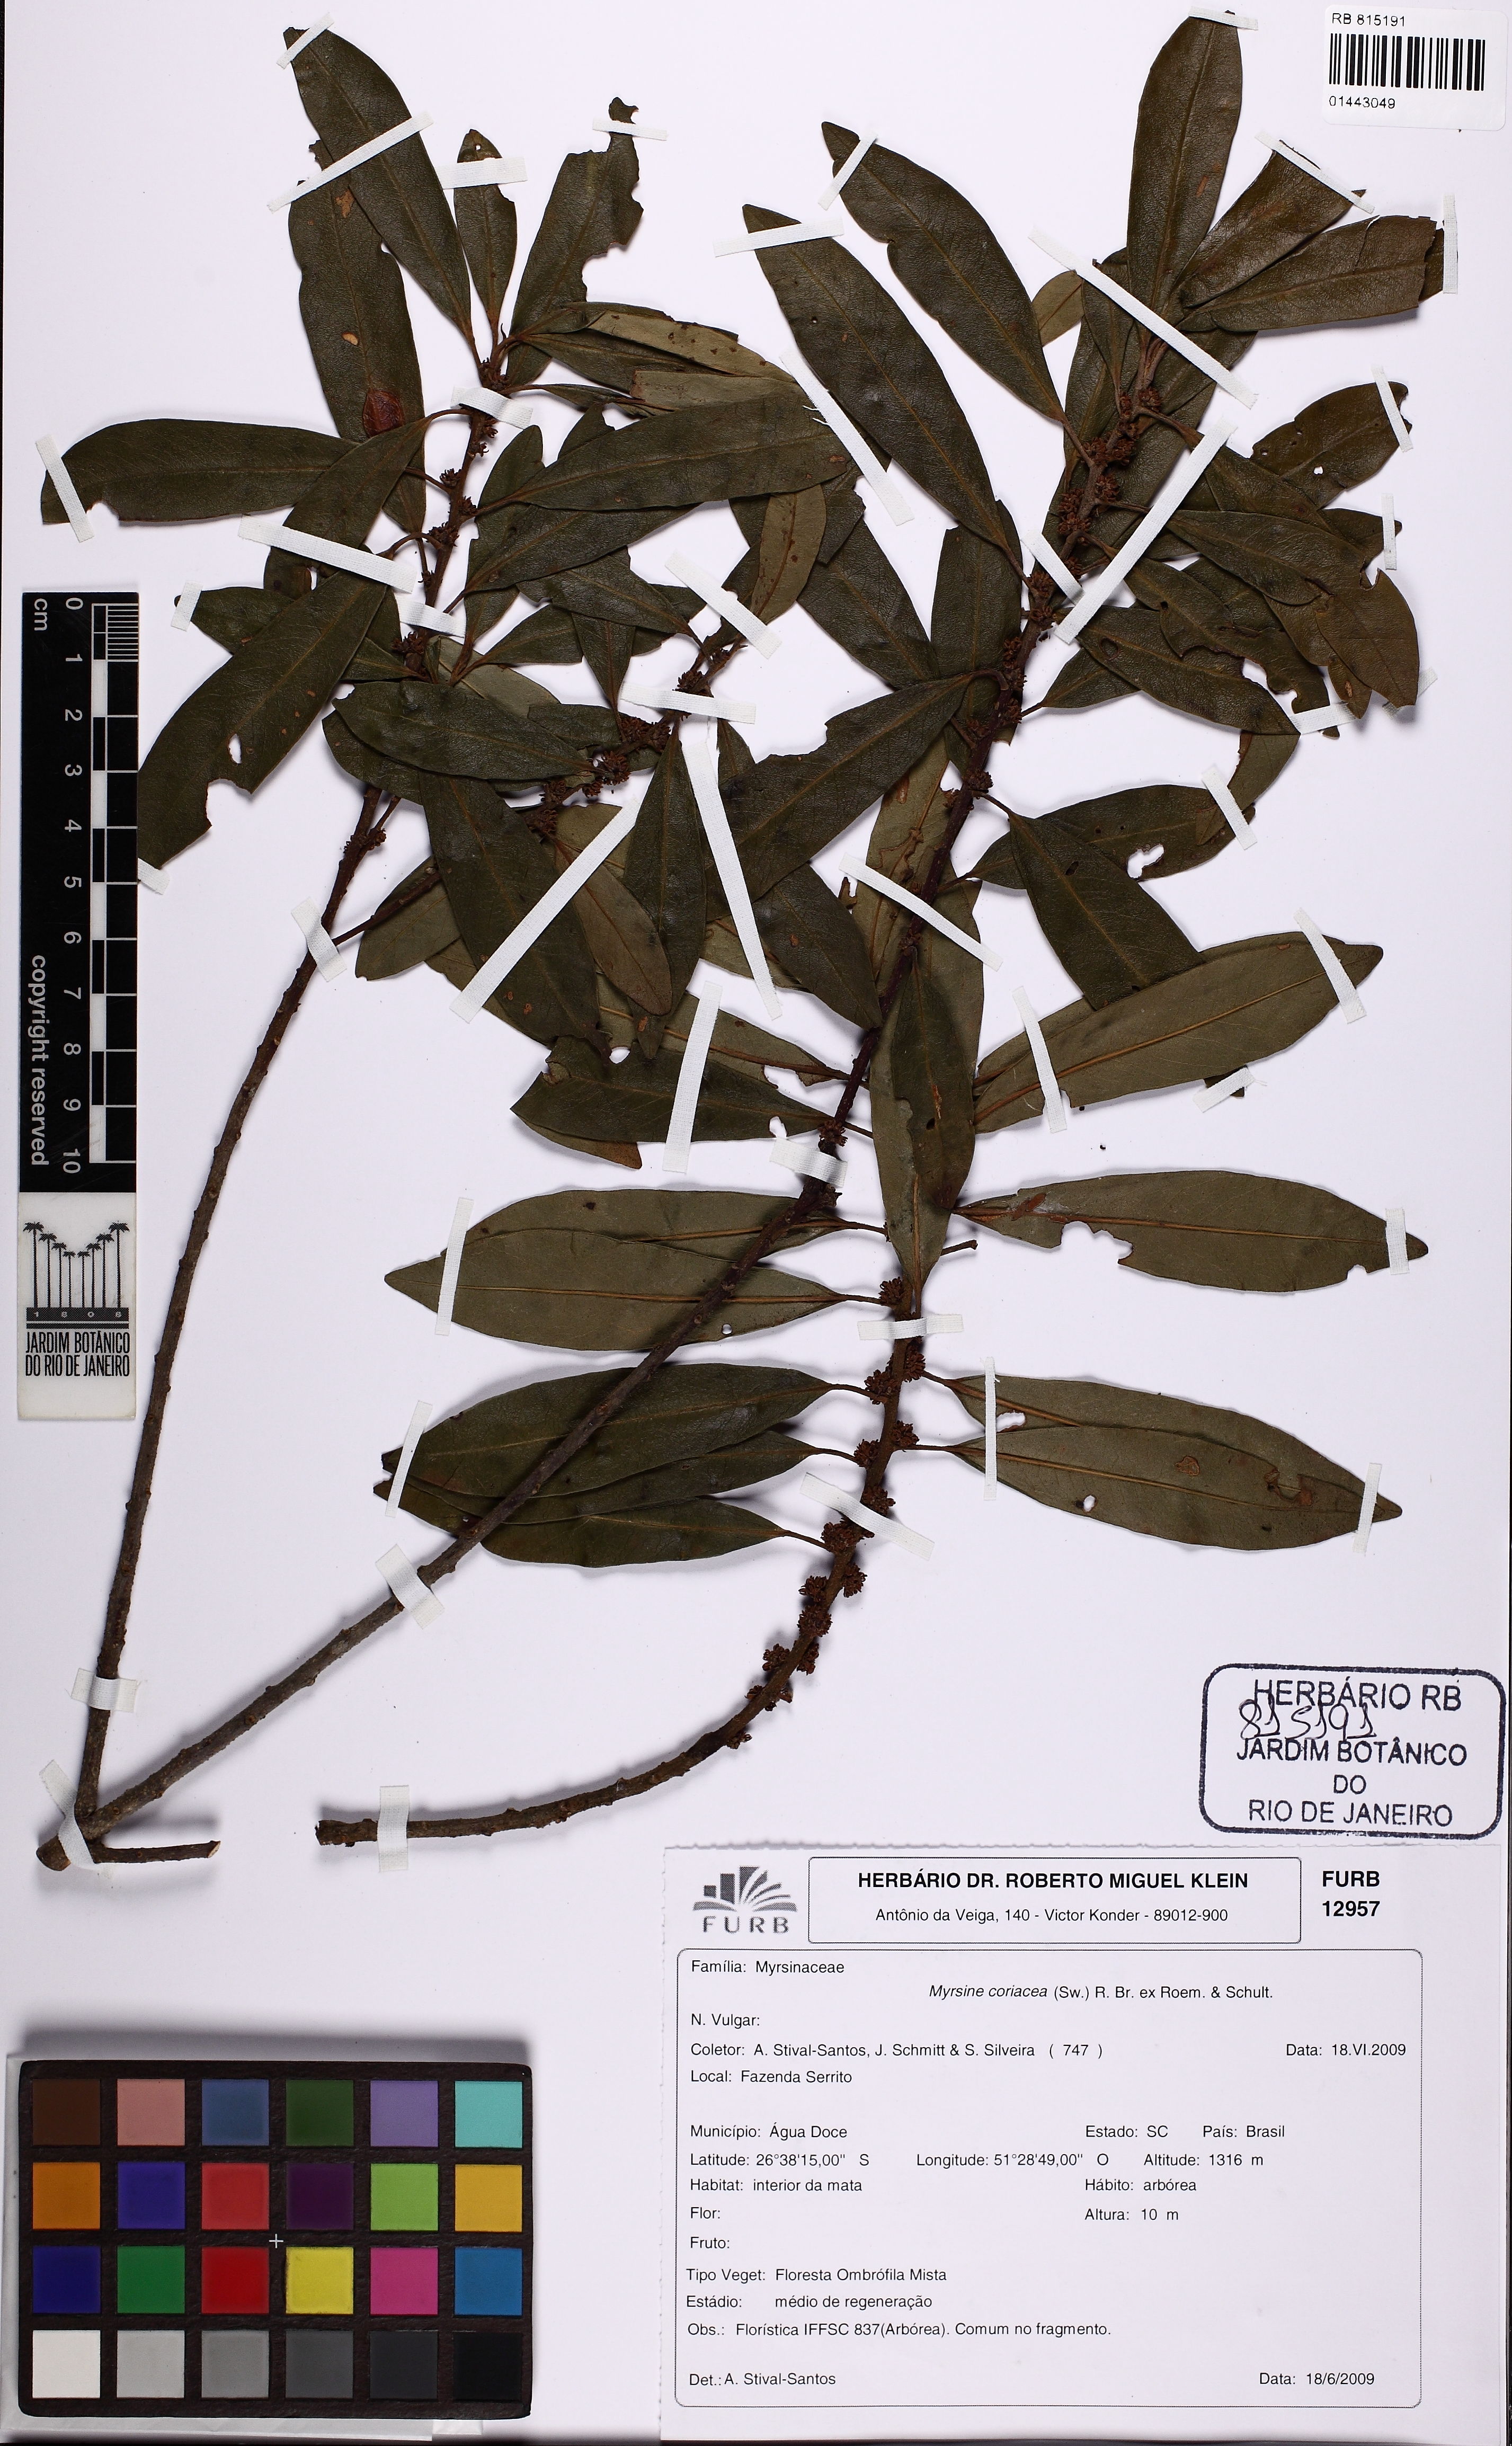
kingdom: Plantae
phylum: Tracheophyta
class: Magnoliopsida
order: Ericales
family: Primulaceae
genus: Myrsine
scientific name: Myrsine coriacea
